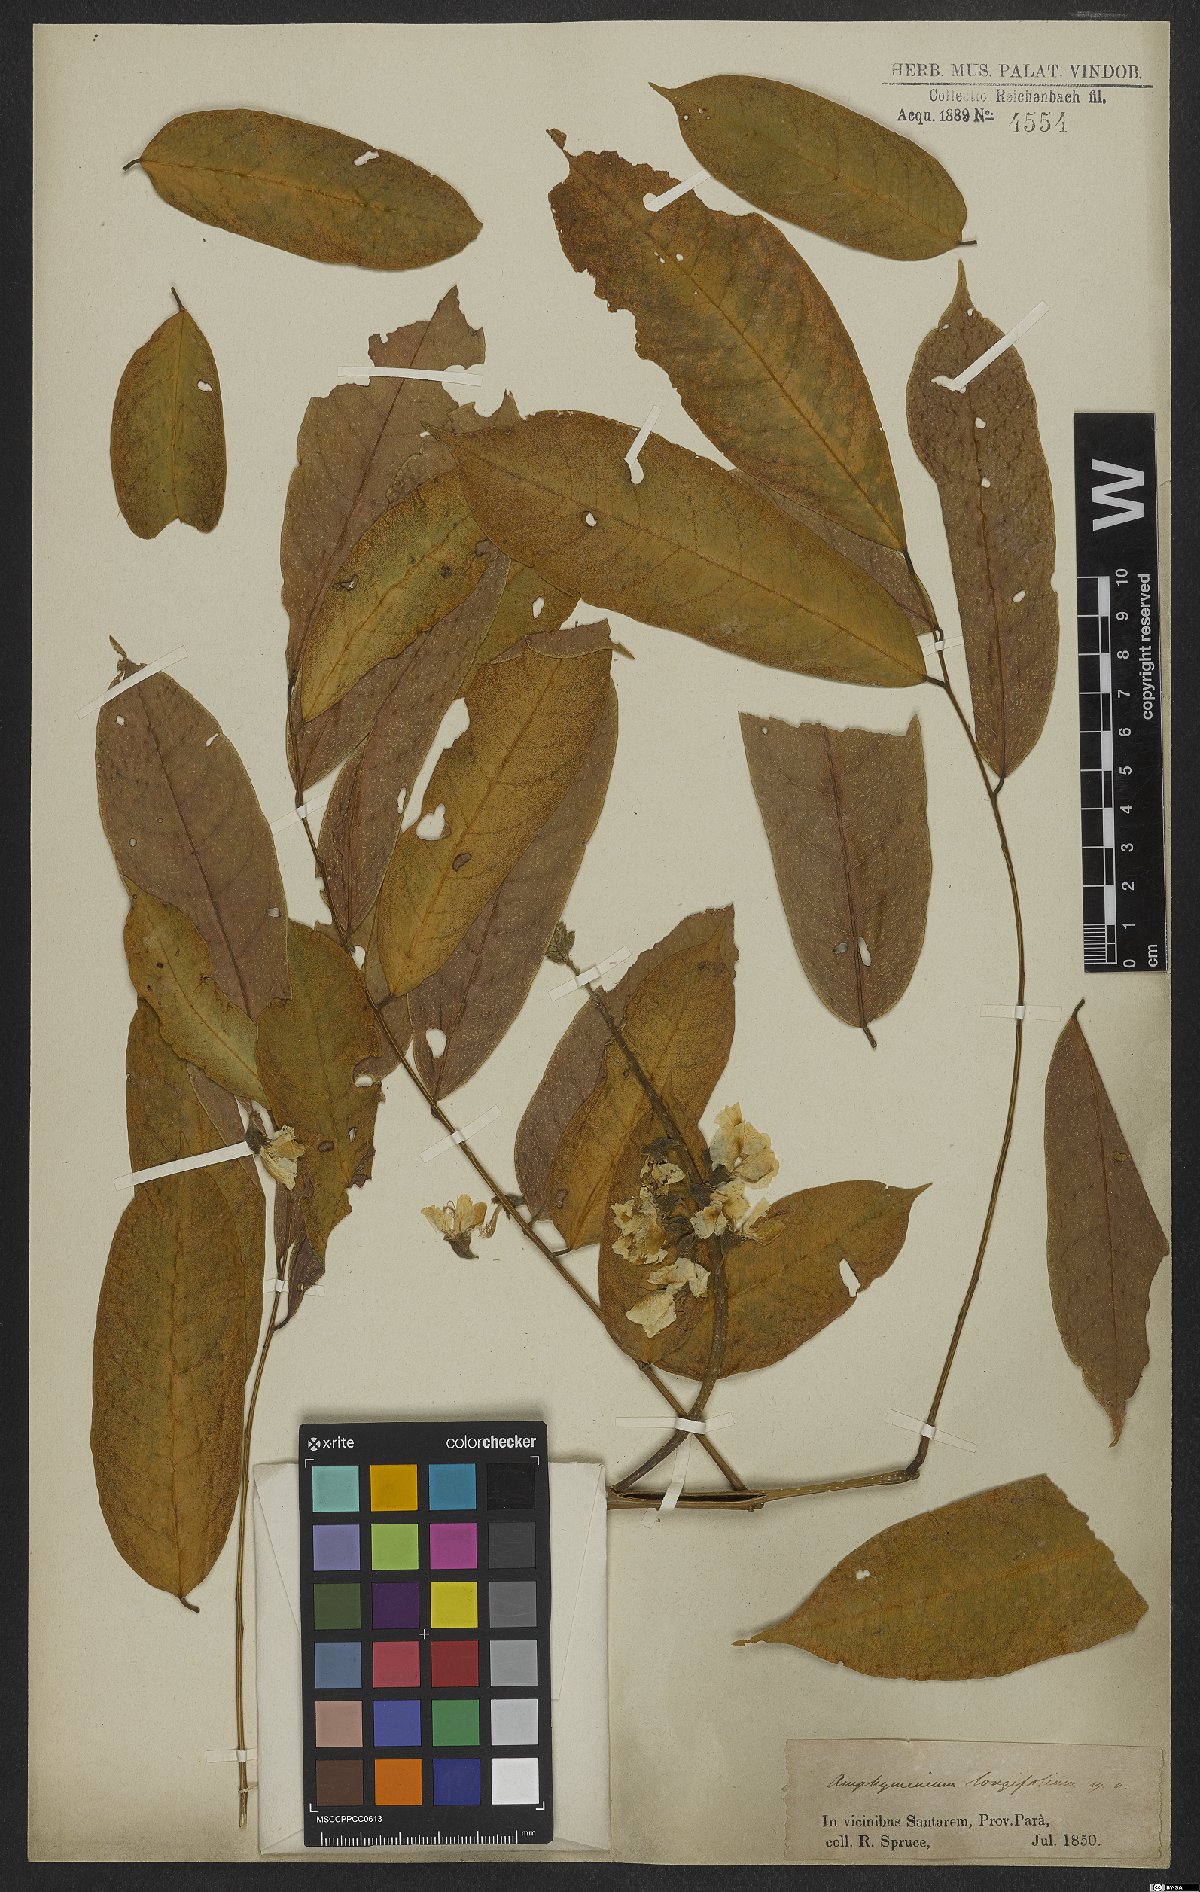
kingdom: Plantae
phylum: Tracheophyta
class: Magnoliopsida
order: Fabales
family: Fabaceae
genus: Deguelia
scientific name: Deguelia negrensis
